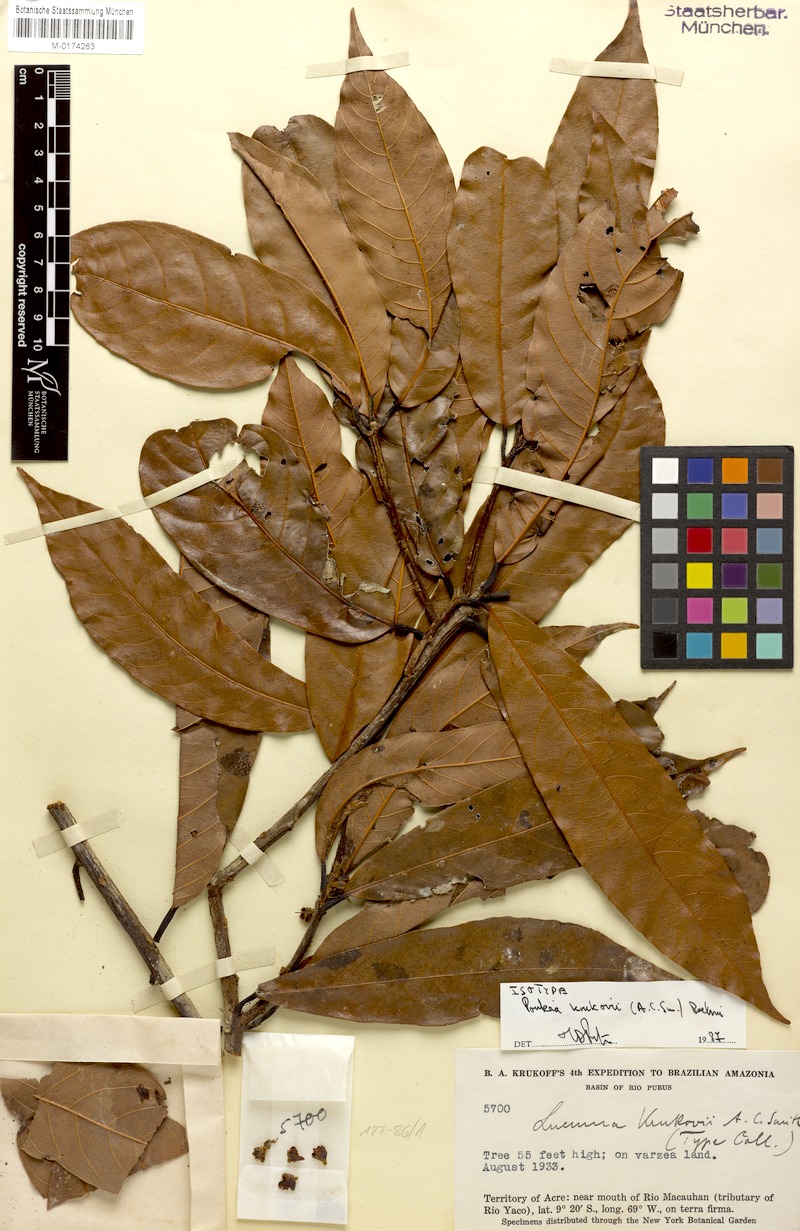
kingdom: Plantae
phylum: Tracheophyta
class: Magnoliopsida
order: Ericales
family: Sapotaceae
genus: Pouteria
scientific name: Pouteria krukovii
